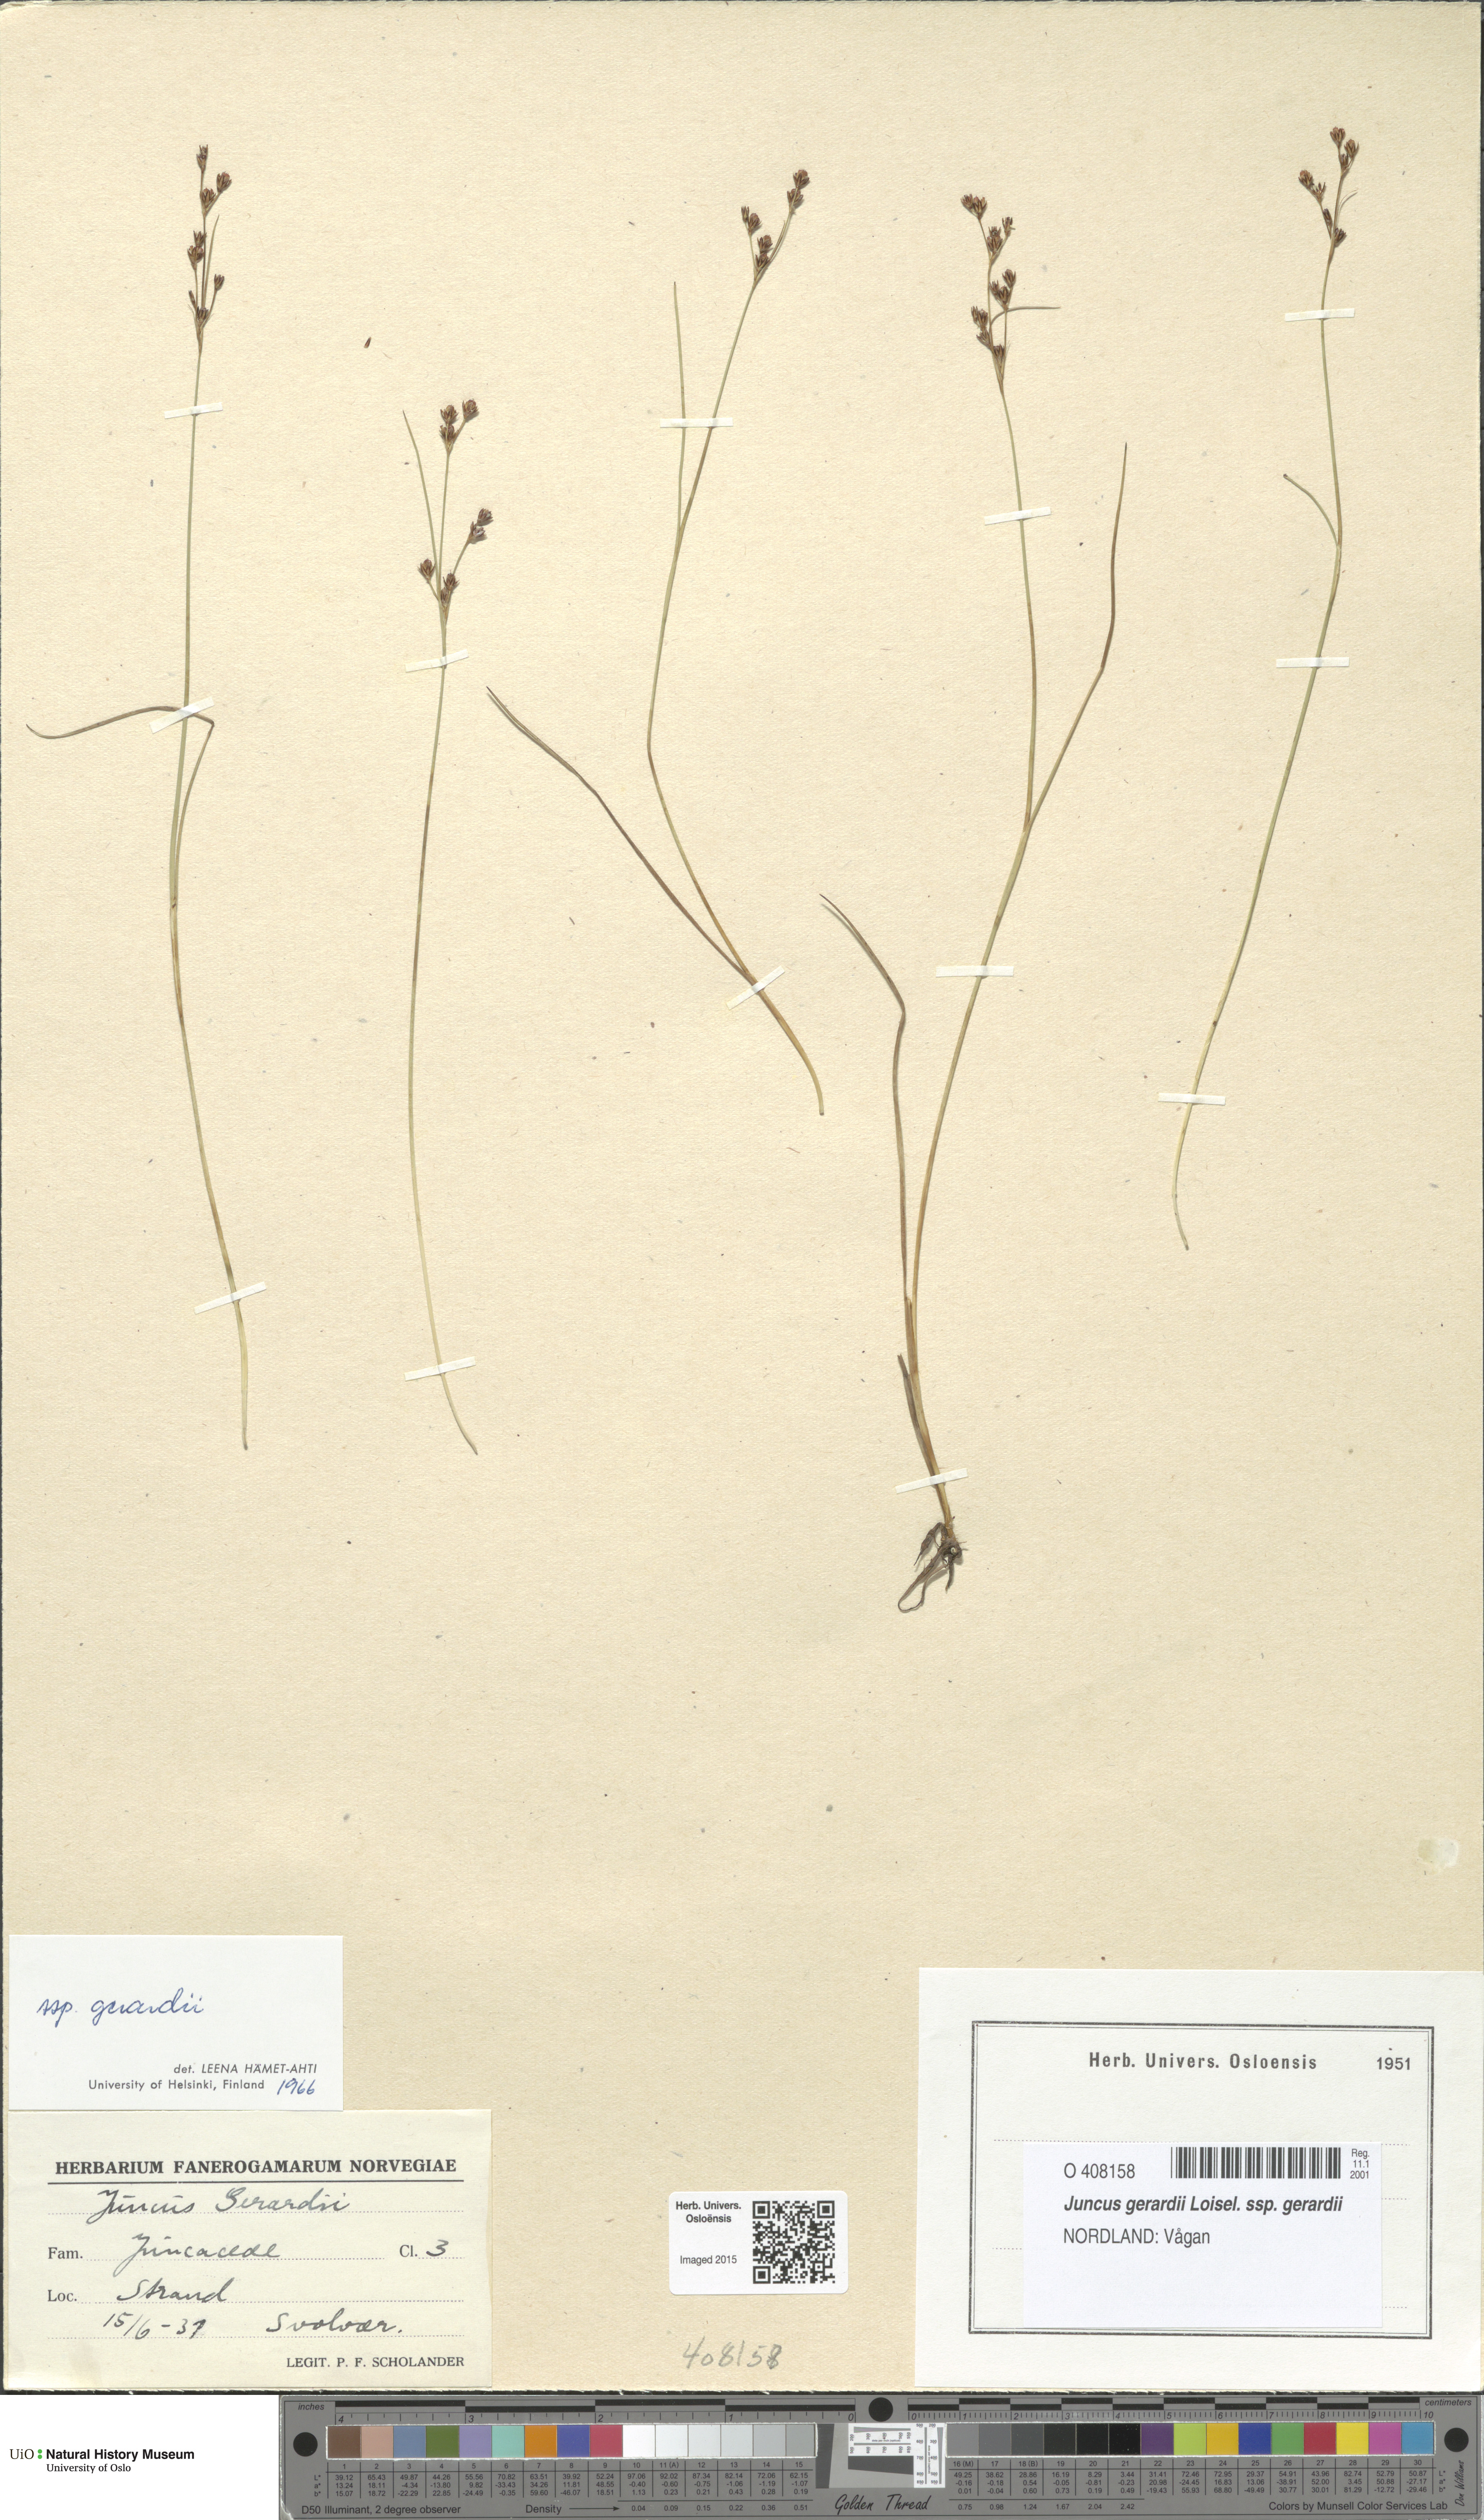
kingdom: Plantae
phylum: Tracheophyta
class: Liliopsida
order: Poales
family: Juncaceae
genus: Juncus
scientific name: Juncus gerardi
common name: Saltmarsh rush
